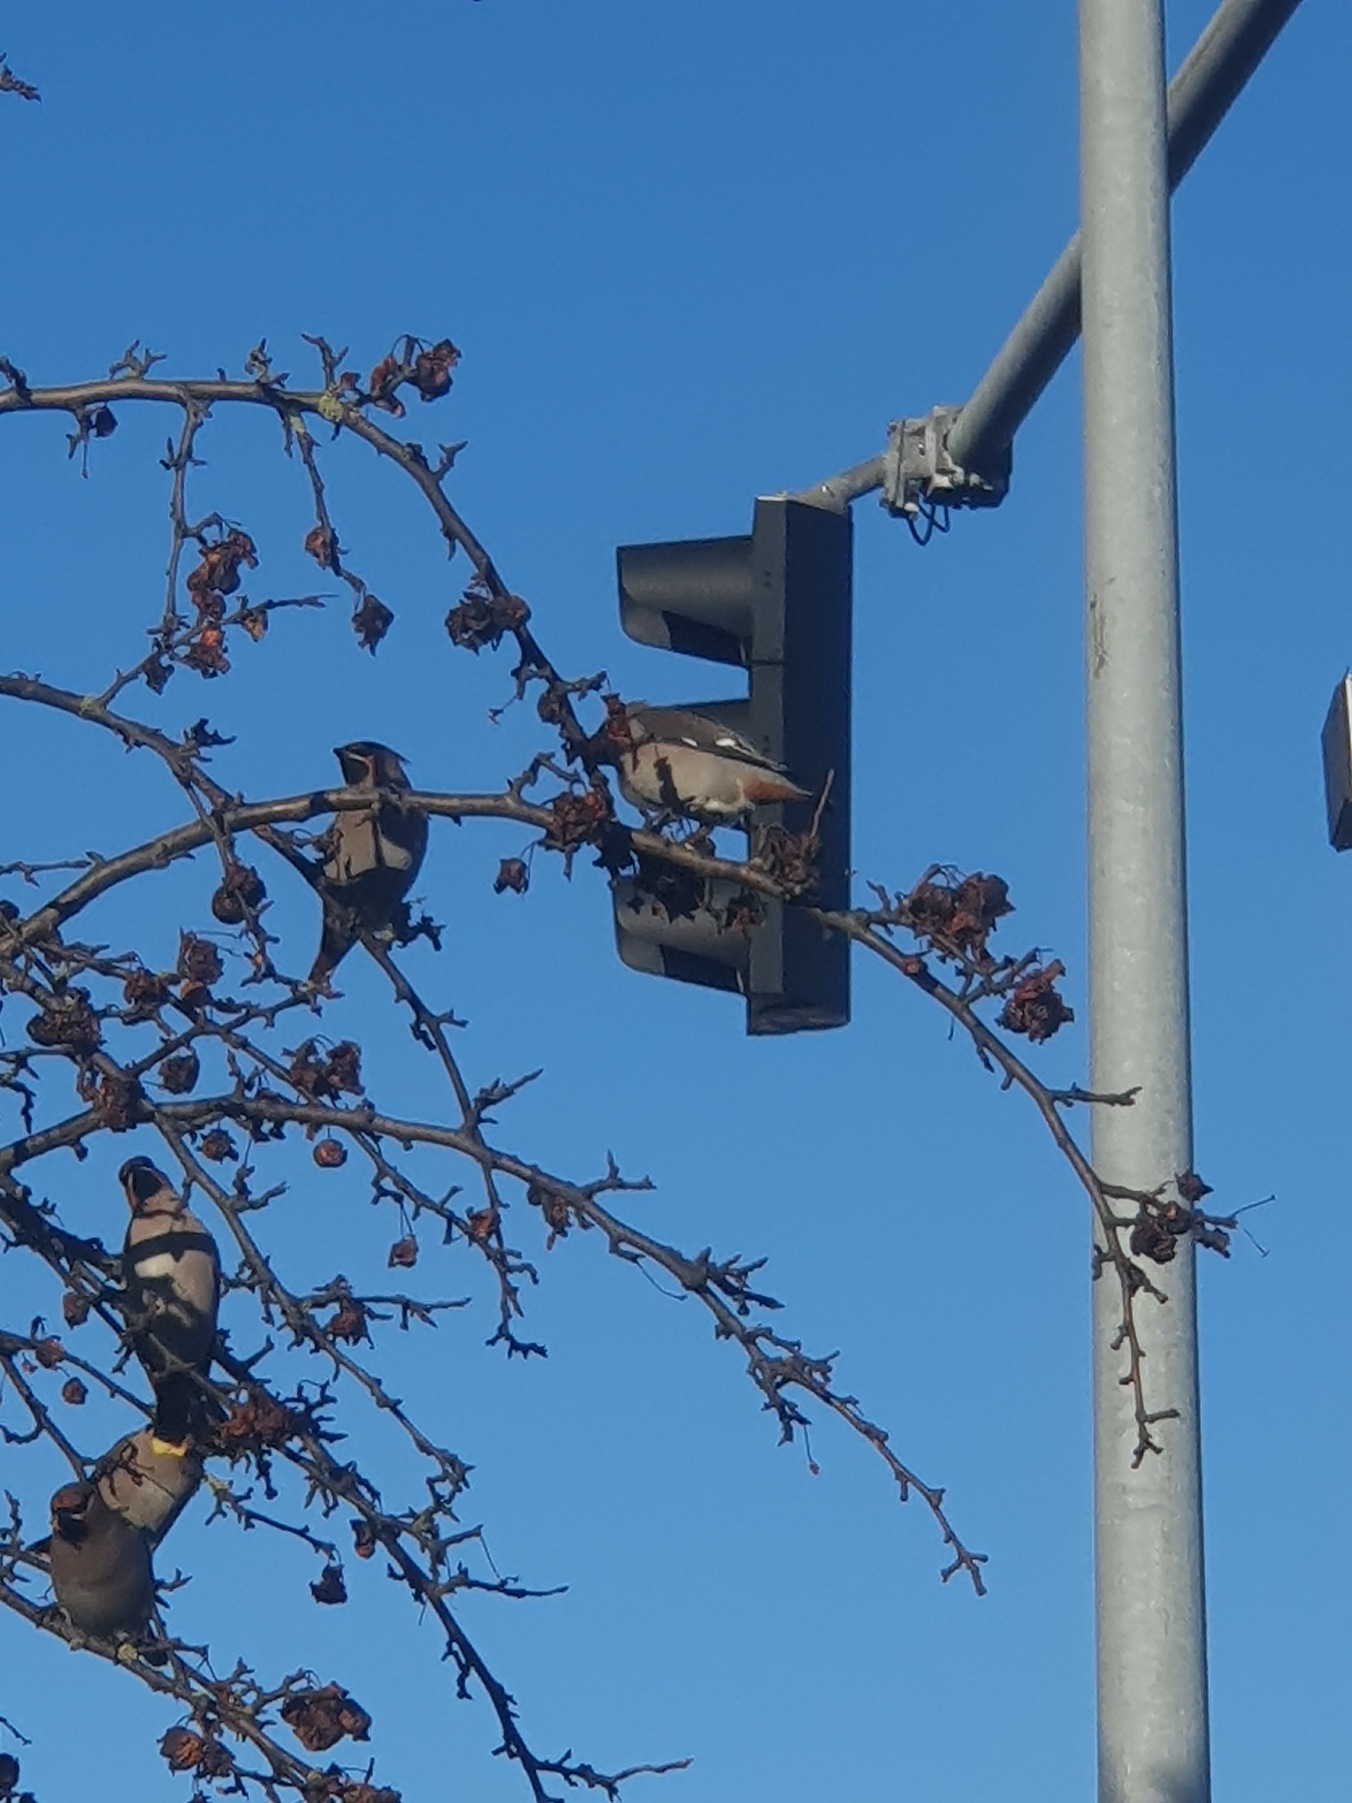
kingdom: Animalia
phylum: Chordata
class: Aves
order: Passeriformes
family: Bombycillidae
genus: Bombycilla
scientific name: Bombycilla garrulus
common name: Silkehale
